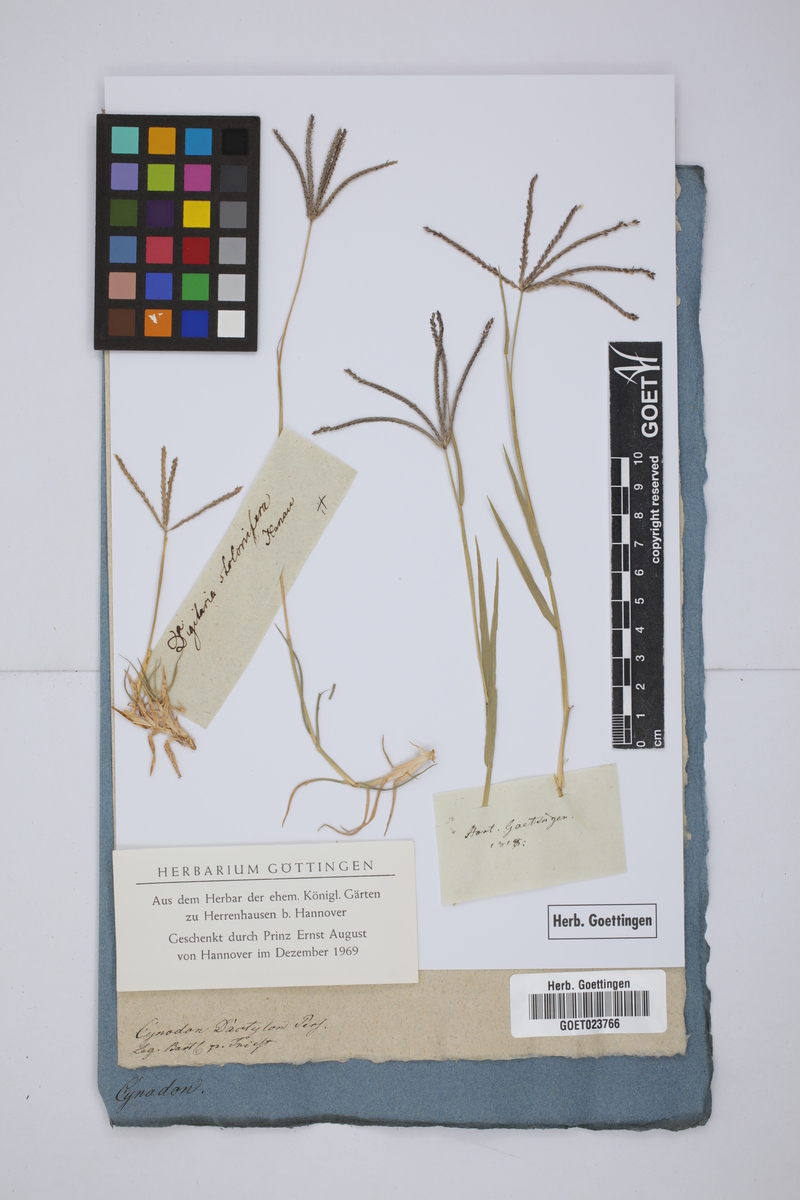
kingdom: Plantae
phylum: Tracheophyta
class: Liliopsida
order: Poales
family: Poaceae
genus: Cynodon
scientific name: Cynodon dactylon
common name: Bermuda grass
